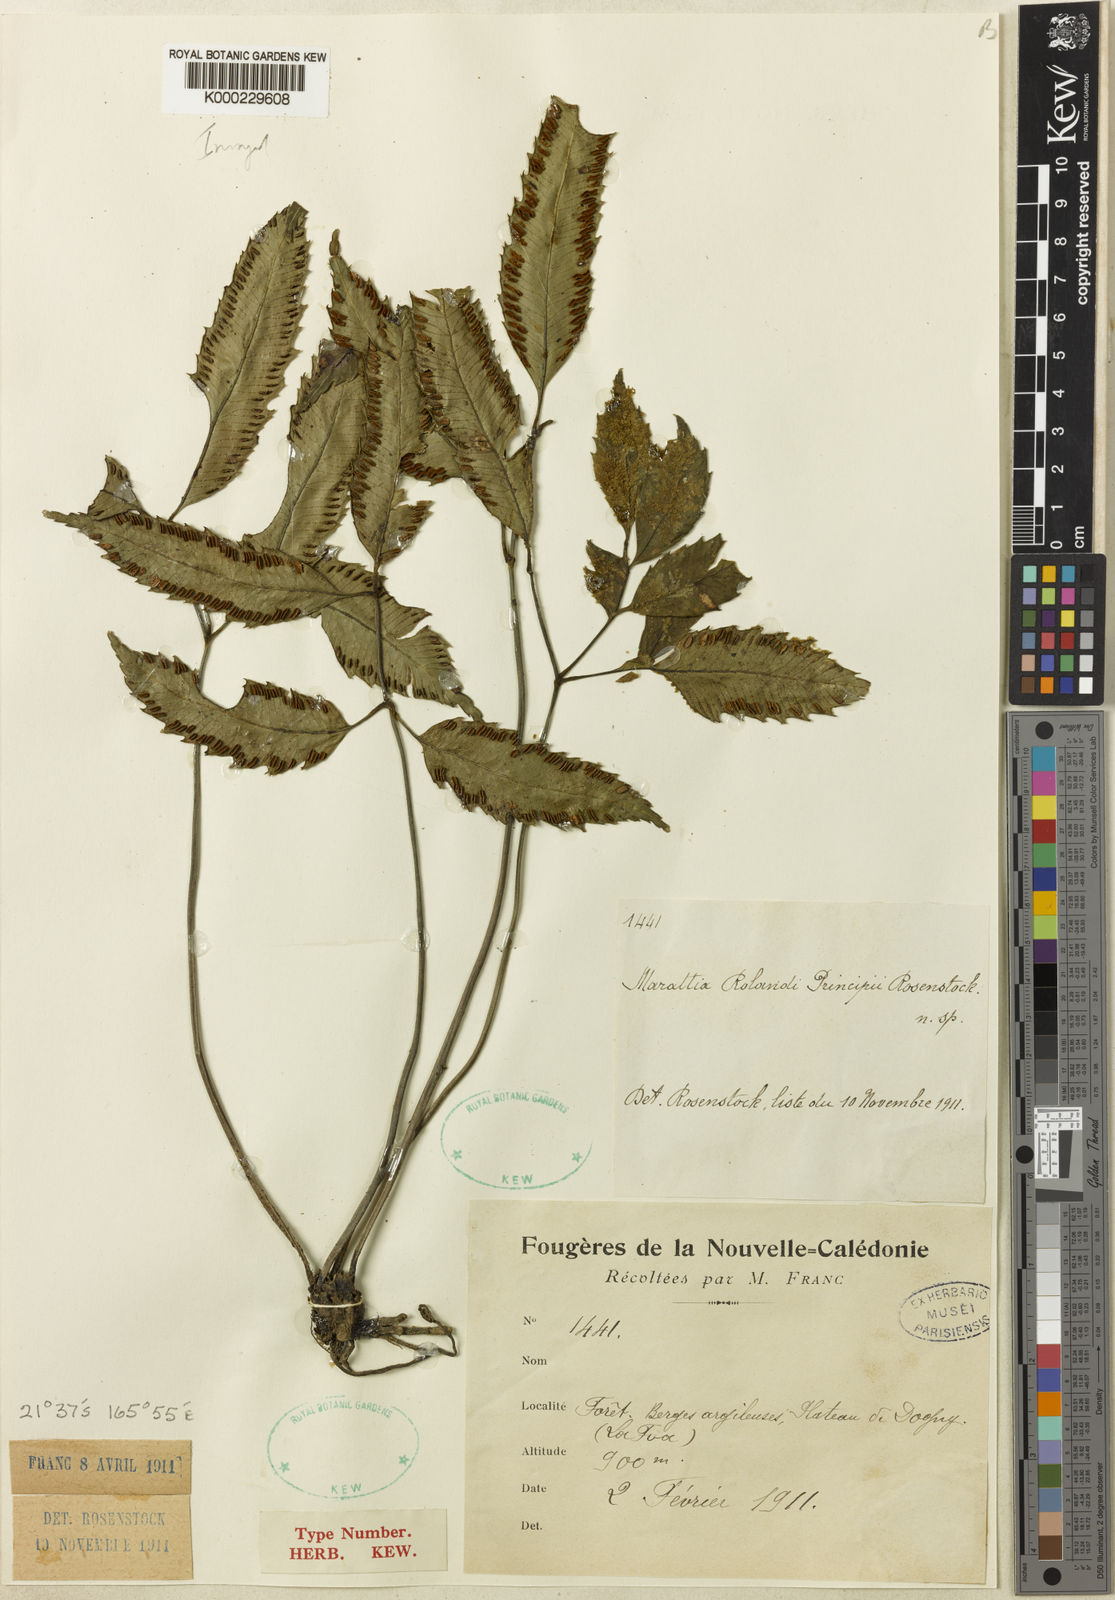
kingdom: Plantae
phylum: Tracheophyta
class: Polypodiopsida
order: Marattiales
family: Marattiaceae
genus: Ptisana
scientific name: Ptisana attenuata
